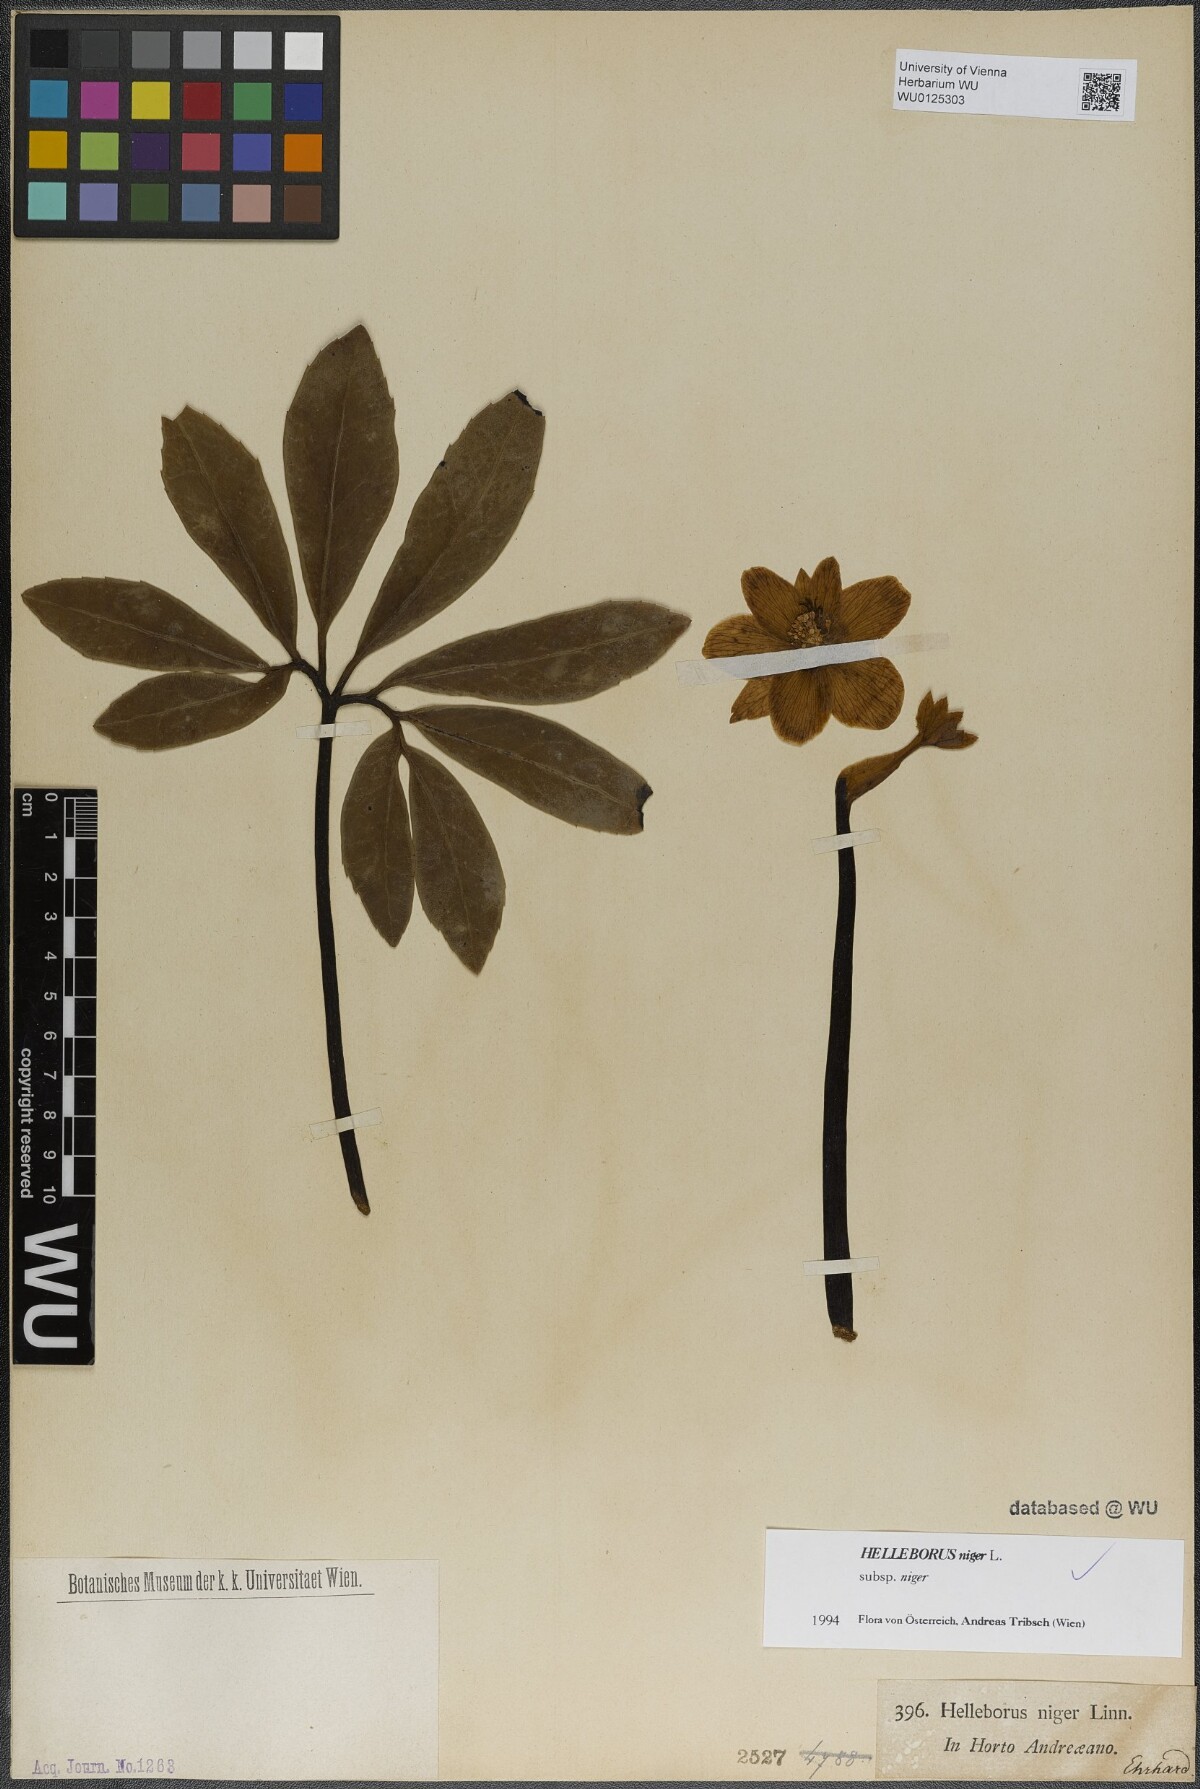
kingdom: Plantae
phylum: Tracheophyta
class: Magnoliopsida
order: Ranunculales
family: Ranunculaceae
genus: Helleborus
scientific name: Helleborus niger
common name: Black hellebore
